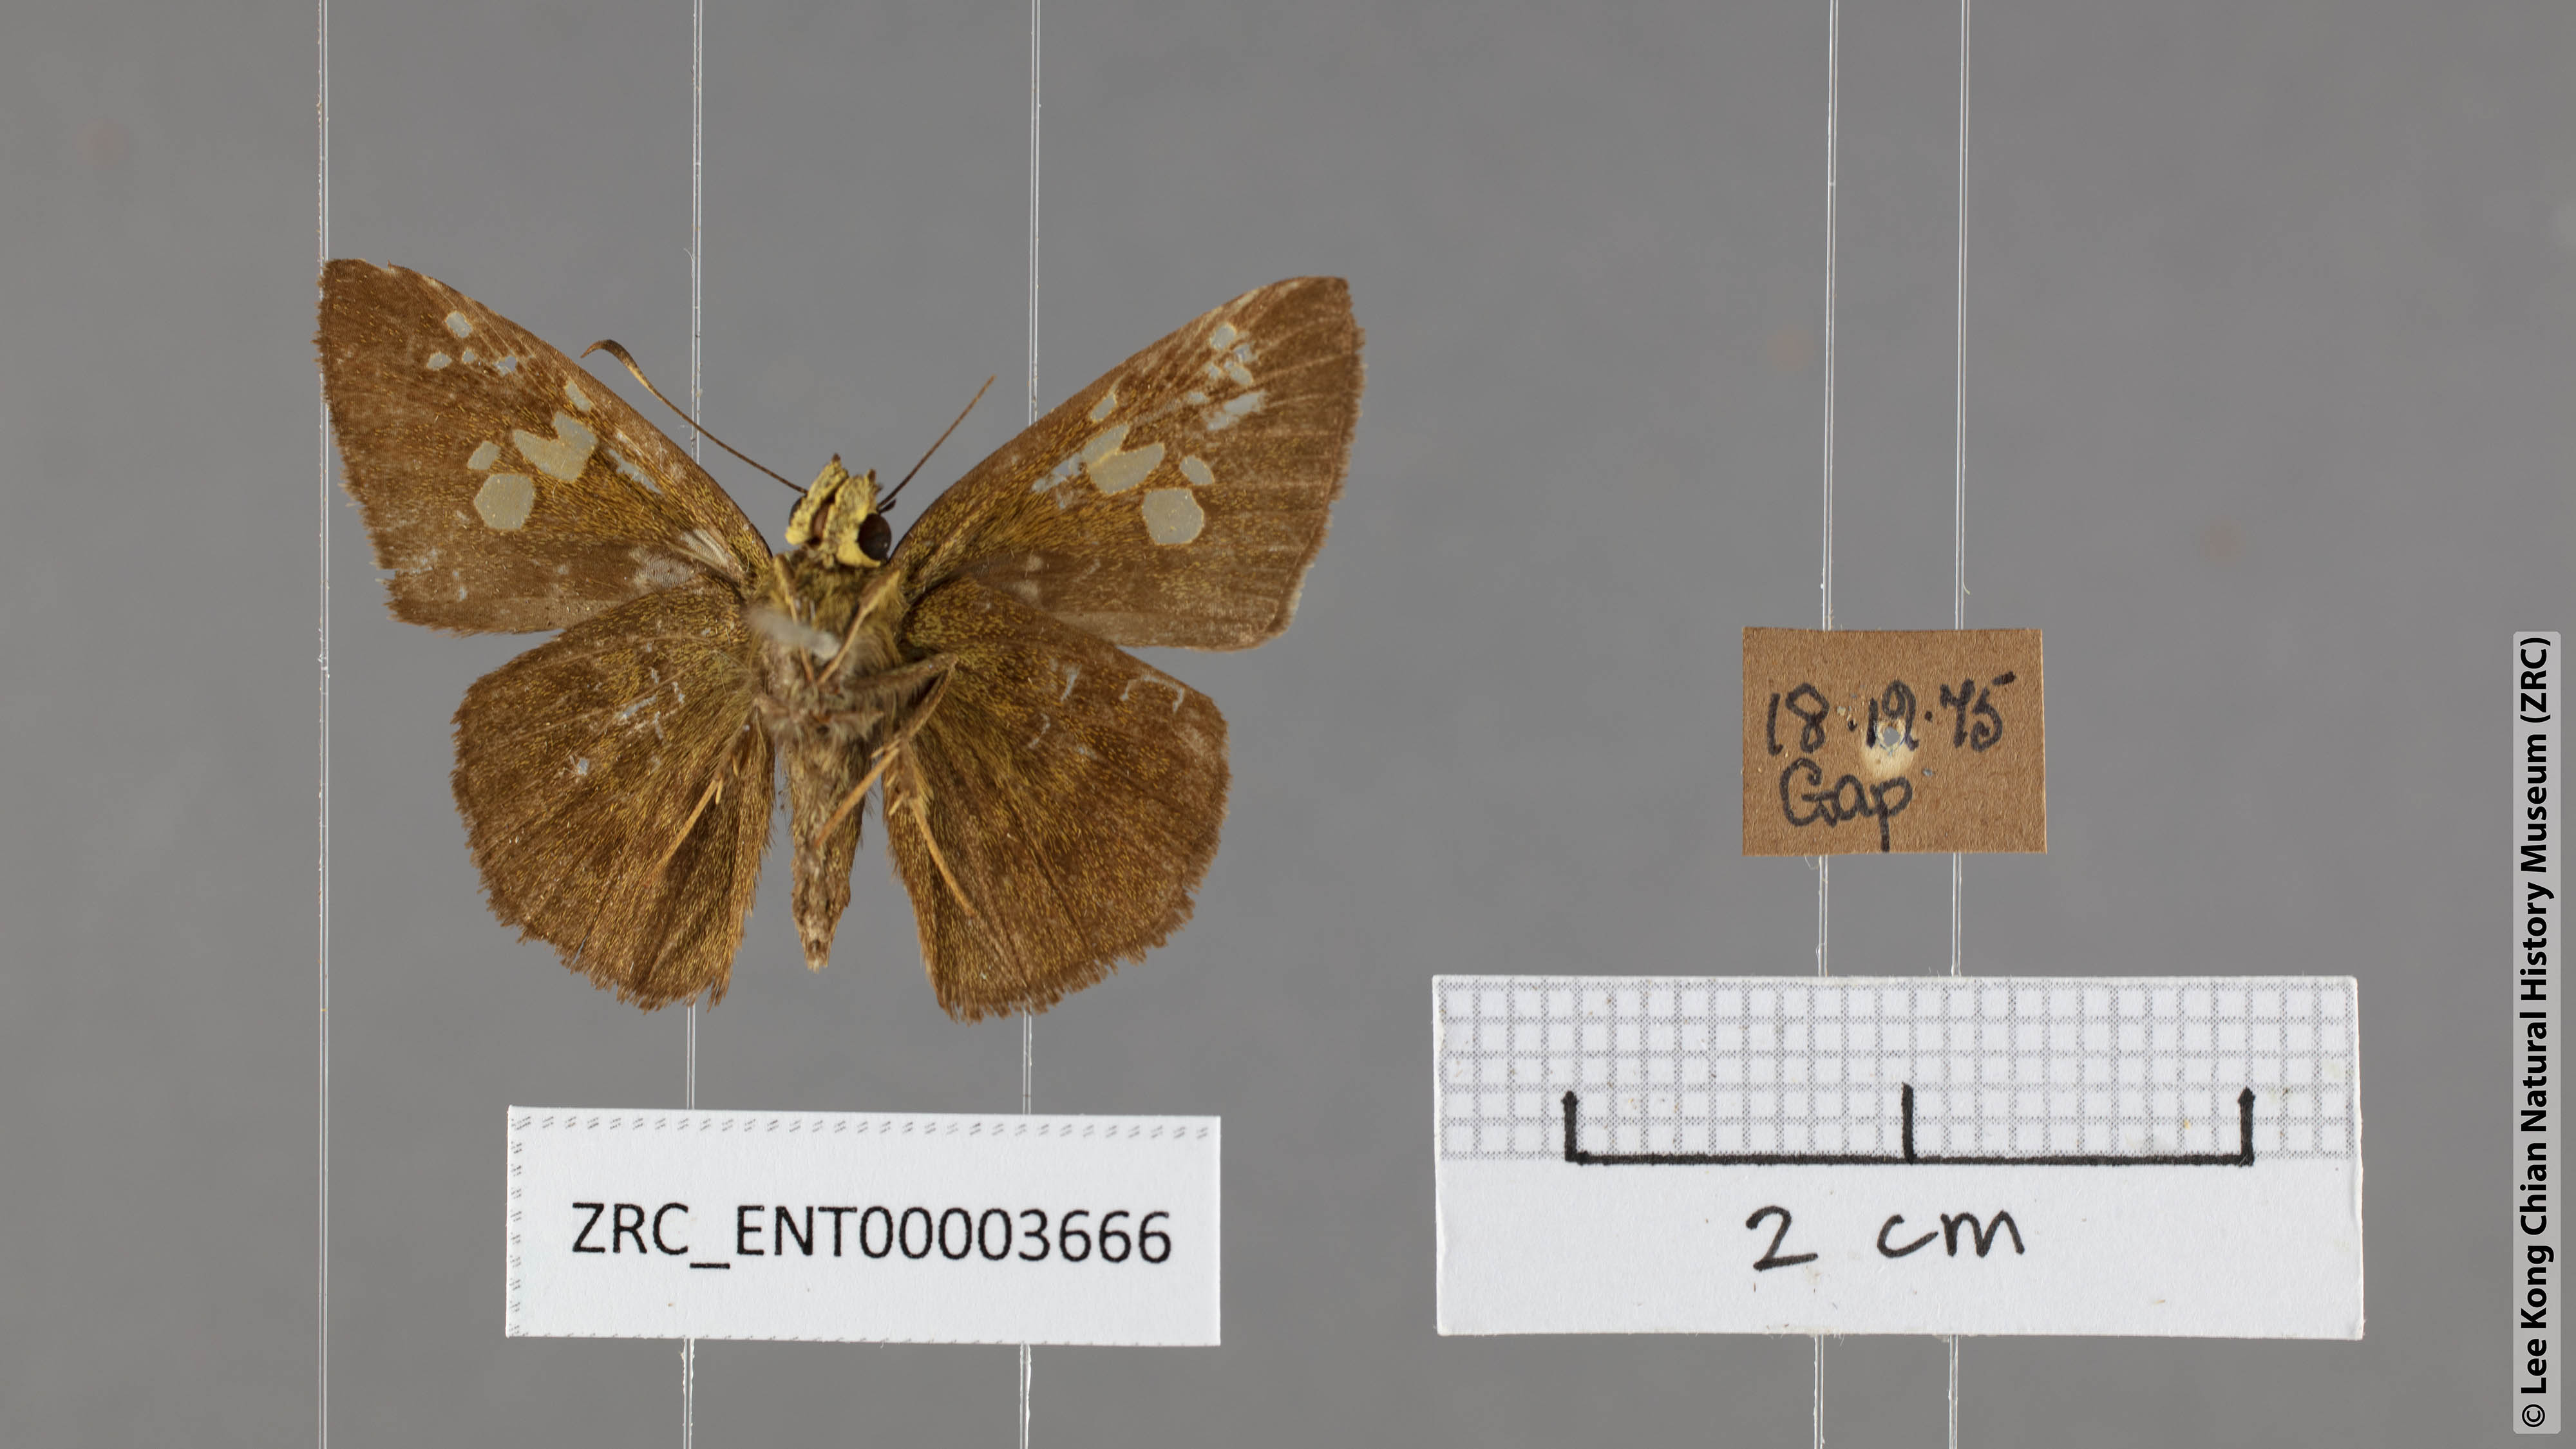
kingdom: Animalia
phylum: Arthropoda
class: Insecta
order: Lepidoptera
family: Hesperiidae
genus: Pseudocoladenia
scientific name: Pseudocoladenia dan
